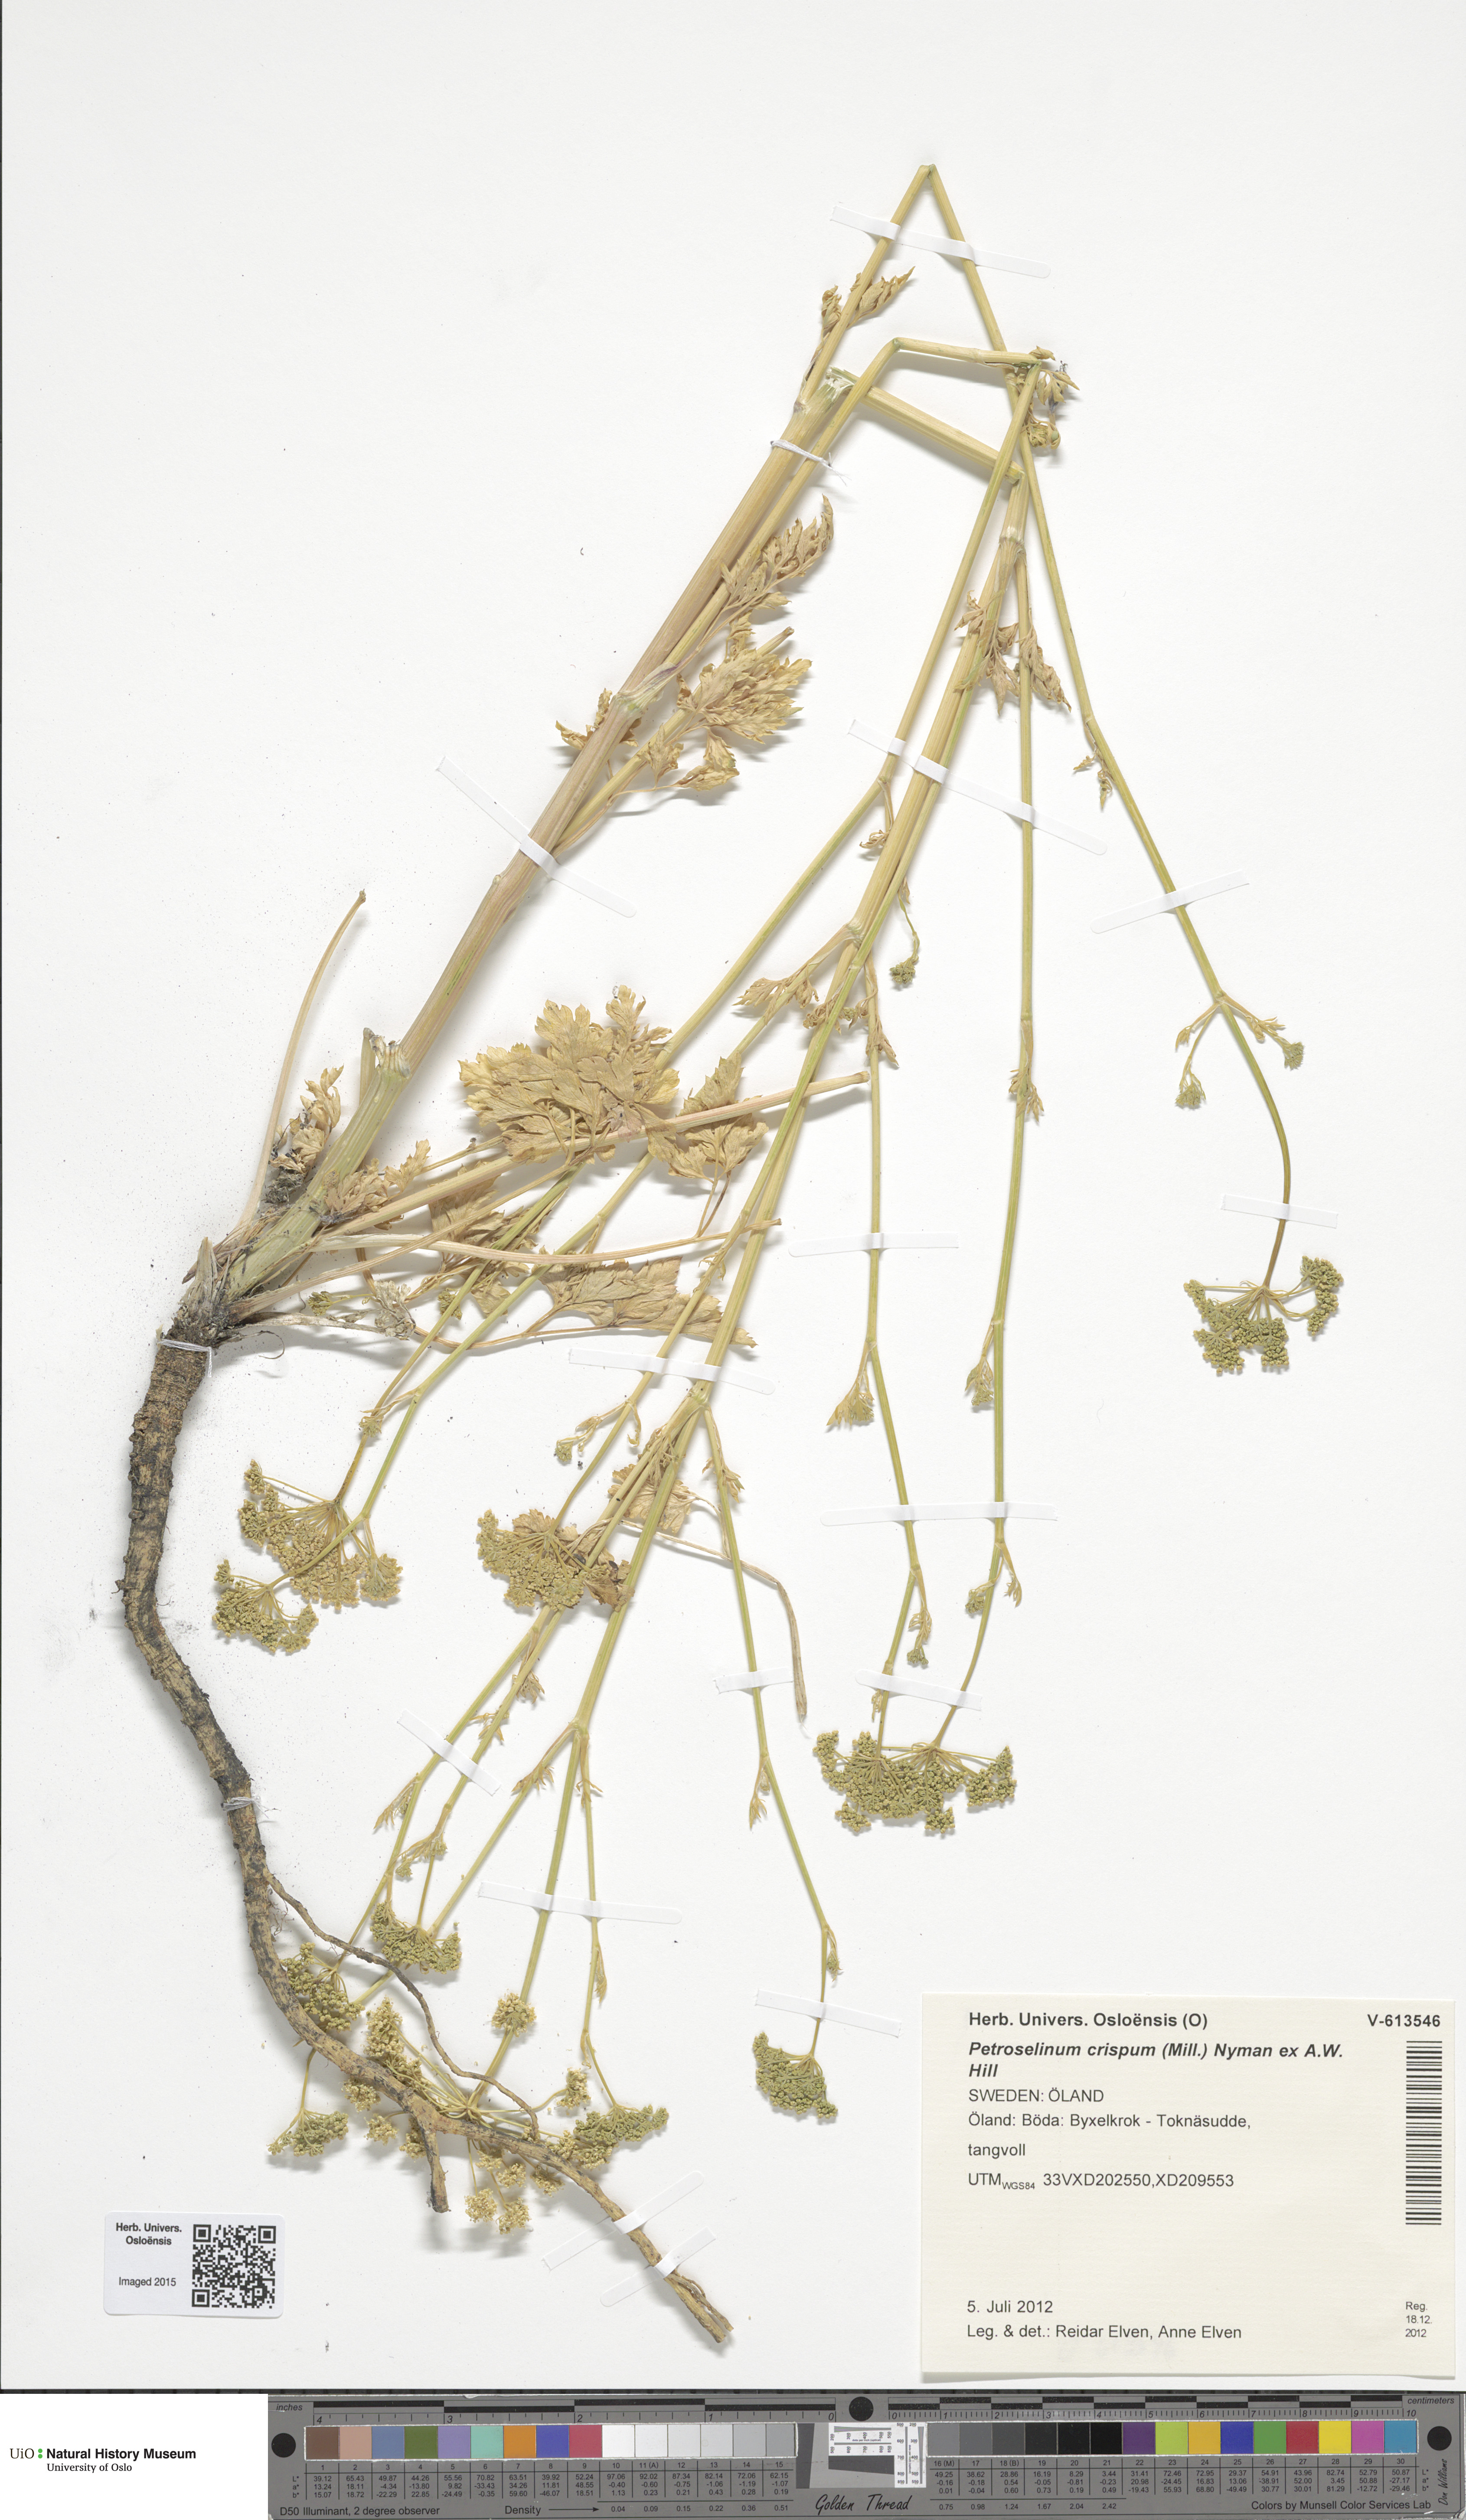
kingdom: Plantae
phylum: Tracheophyta
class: Magnoliopsida
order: Apiales
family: Apiaceae
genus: Petroselinum
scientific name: Petroselinum crispum
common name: Parsley
